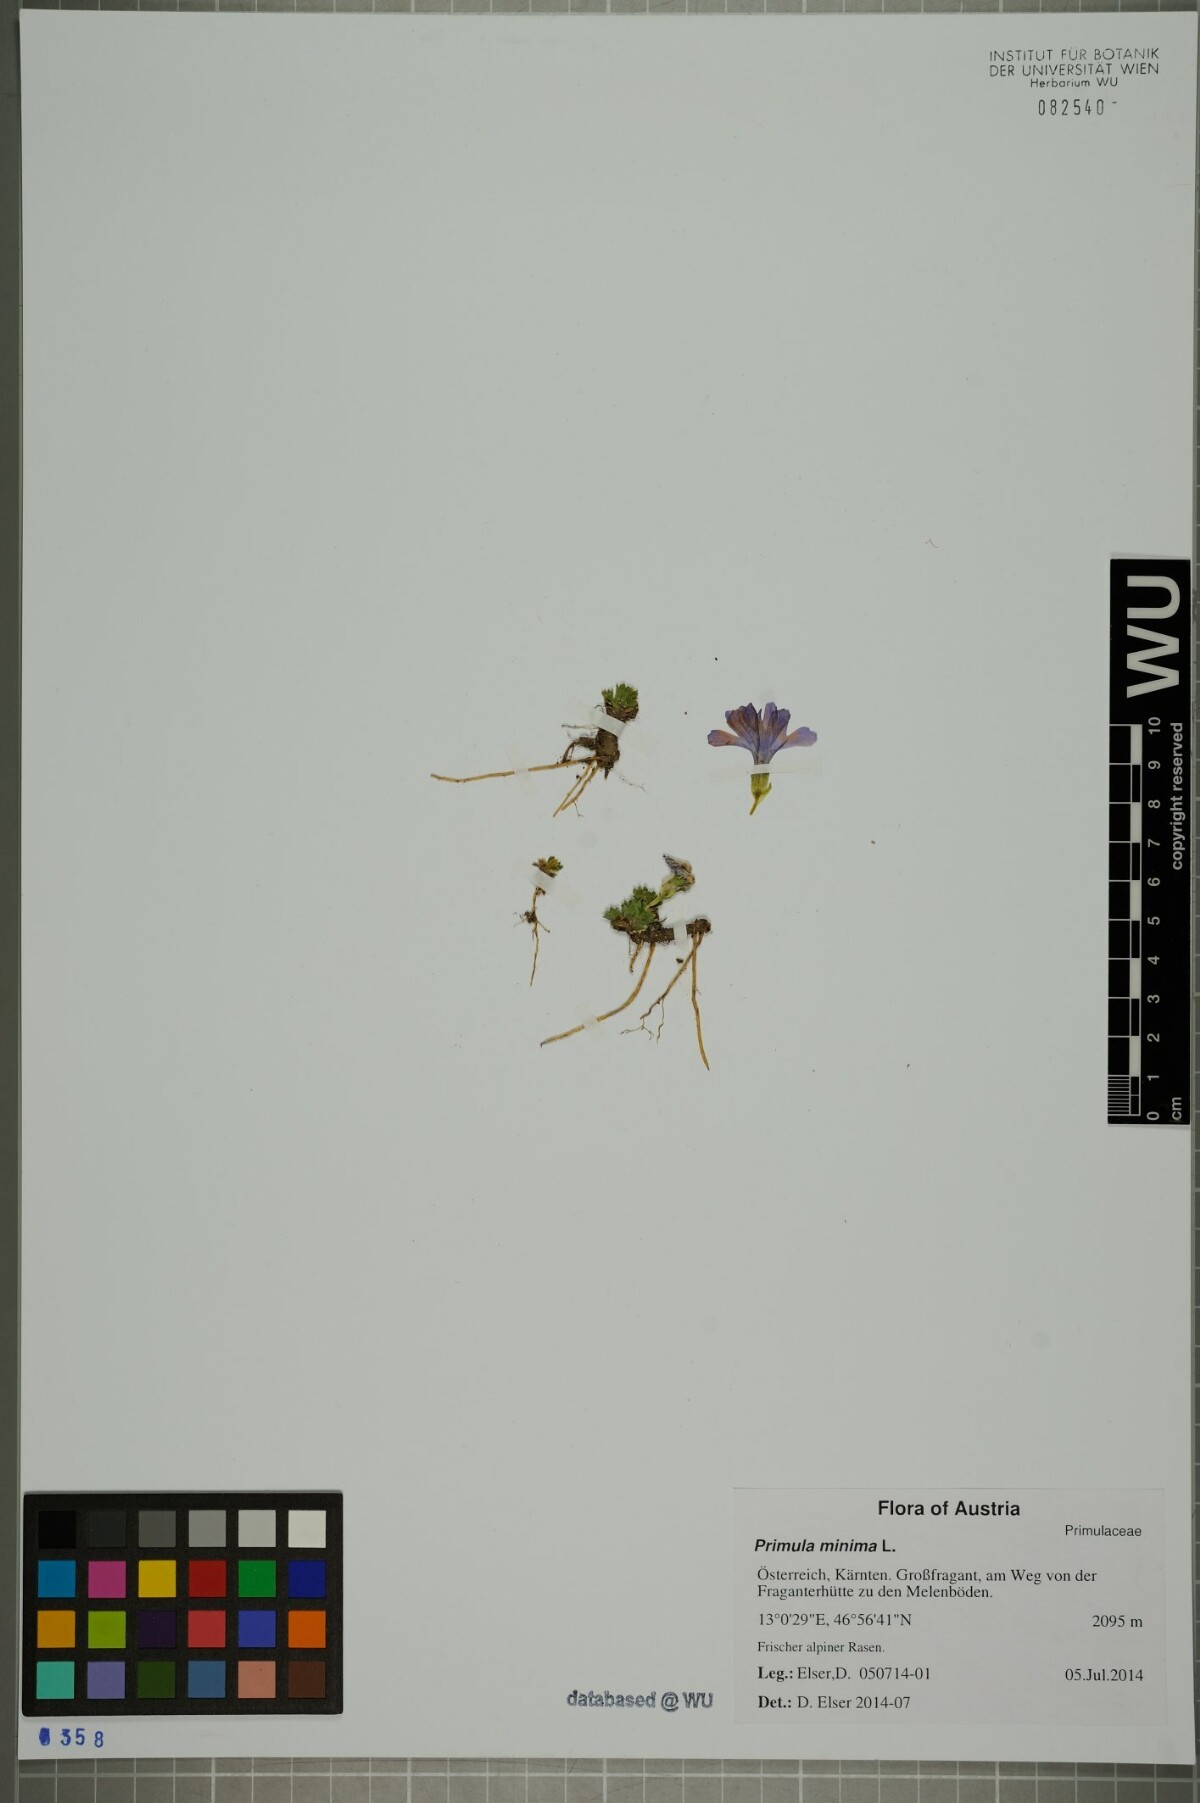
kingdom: Plantae
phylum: Tracheophyta
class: Magnoliopsida
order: Ericales
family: Primulaceae
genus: Primula
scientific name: Primula minima
